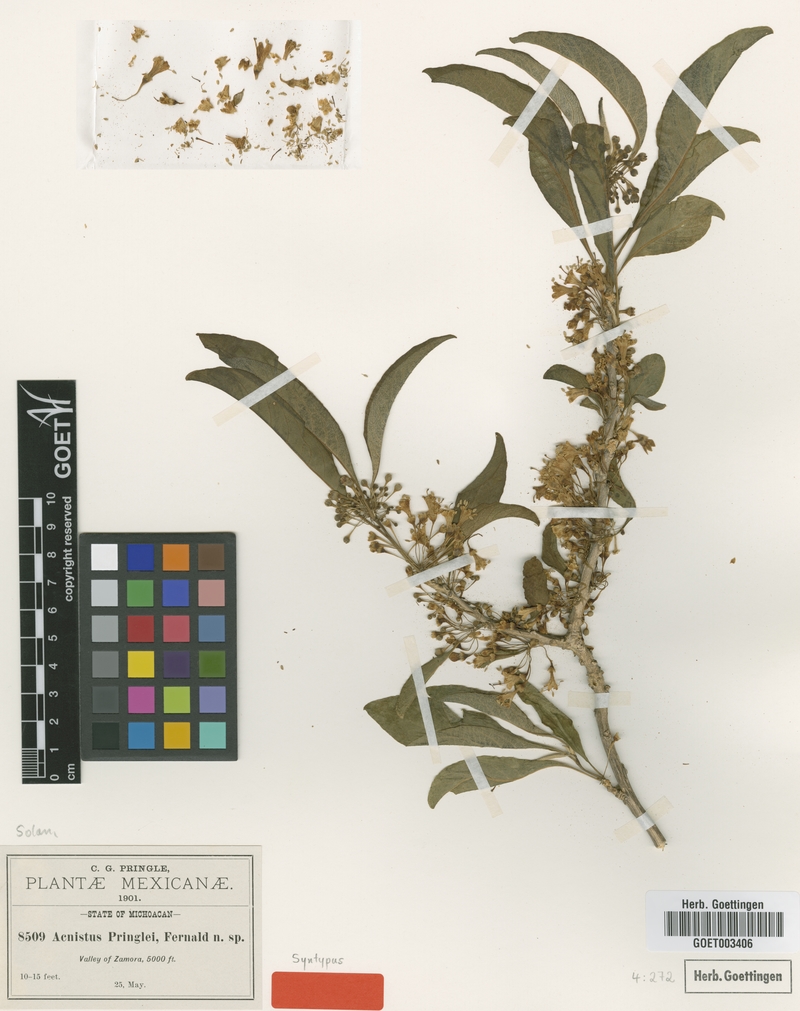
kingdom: Plantae
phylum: Tracheophyta
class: Magnoliopsida
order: Solanales
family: Solanaceae
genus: Iochroma
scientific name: Iochroma arborescens
